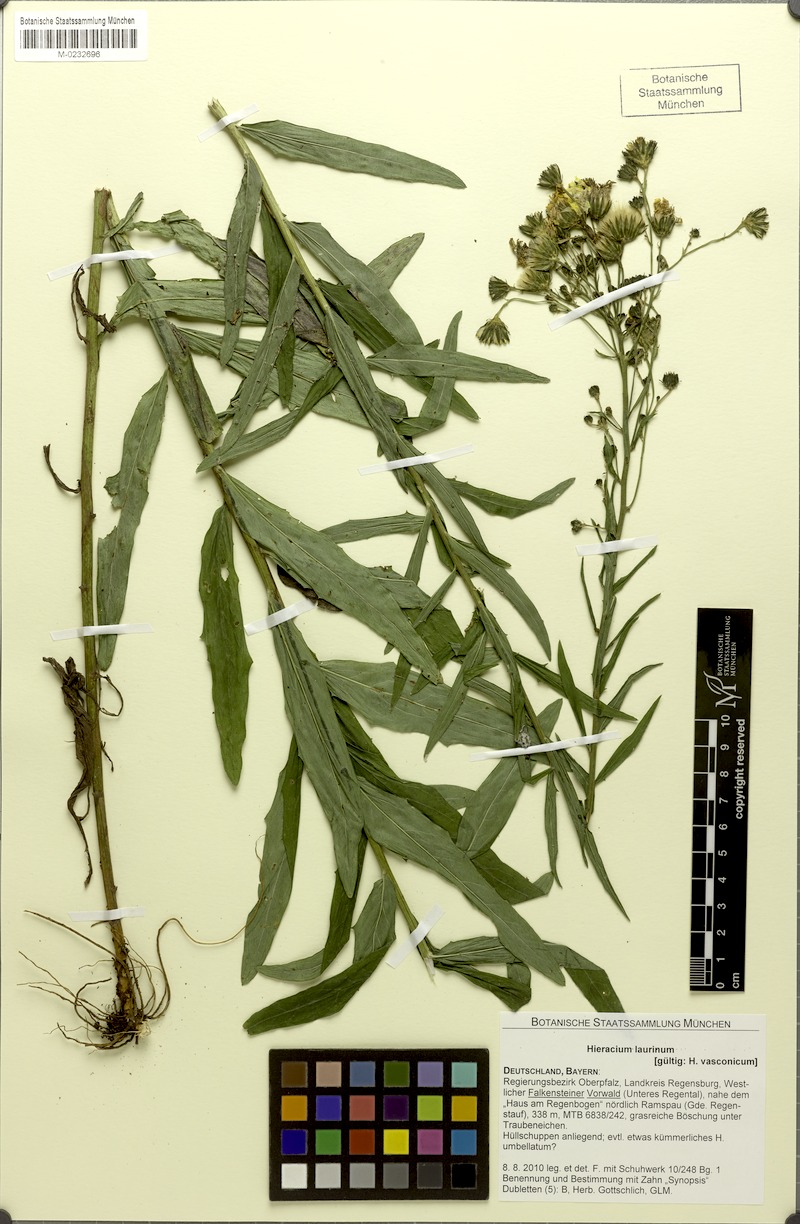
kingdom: Plantae
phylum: Tracheophyta
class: Magnoliopsida
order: Asterales
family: Asteraceae
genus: Hieracium
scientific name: Hieracium vasconicum
